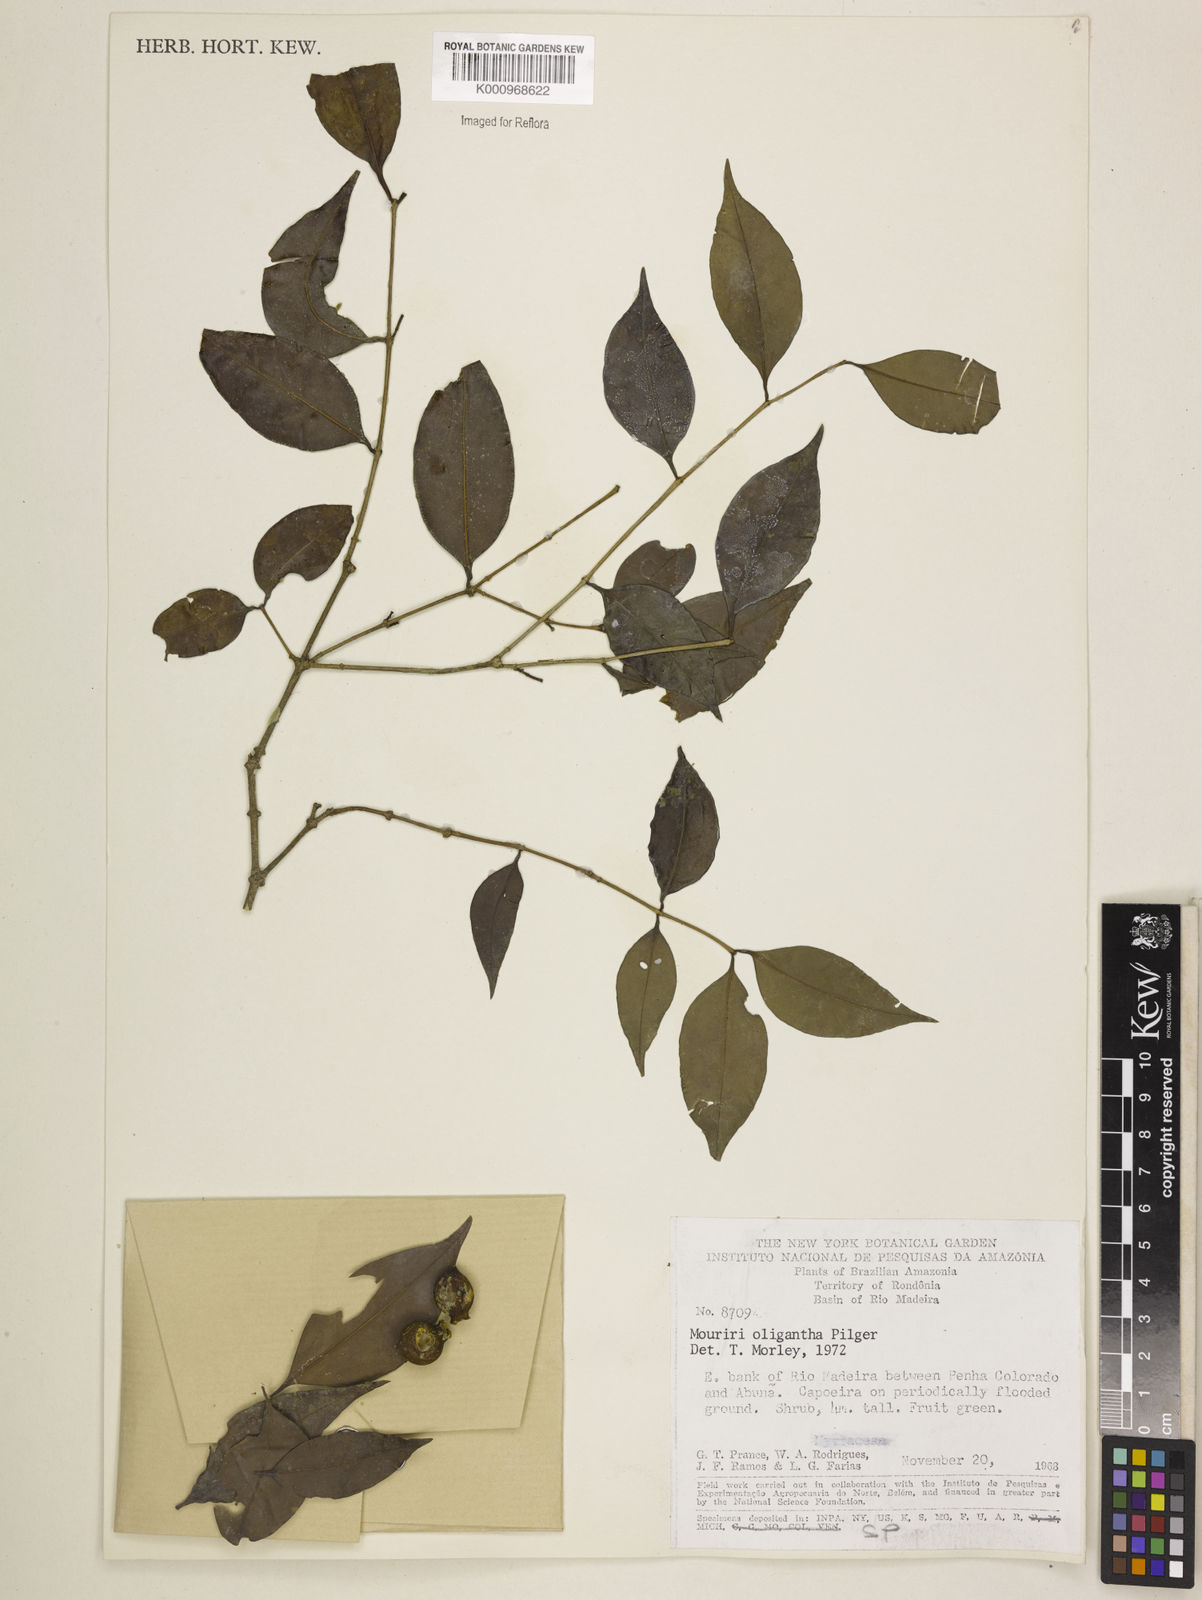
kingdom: Plantae
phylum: Tracheophyta
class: Magnoliopsida
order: Myrtales
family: Melastomataceae
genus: Mouriri
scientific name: Mouriri oligantha
